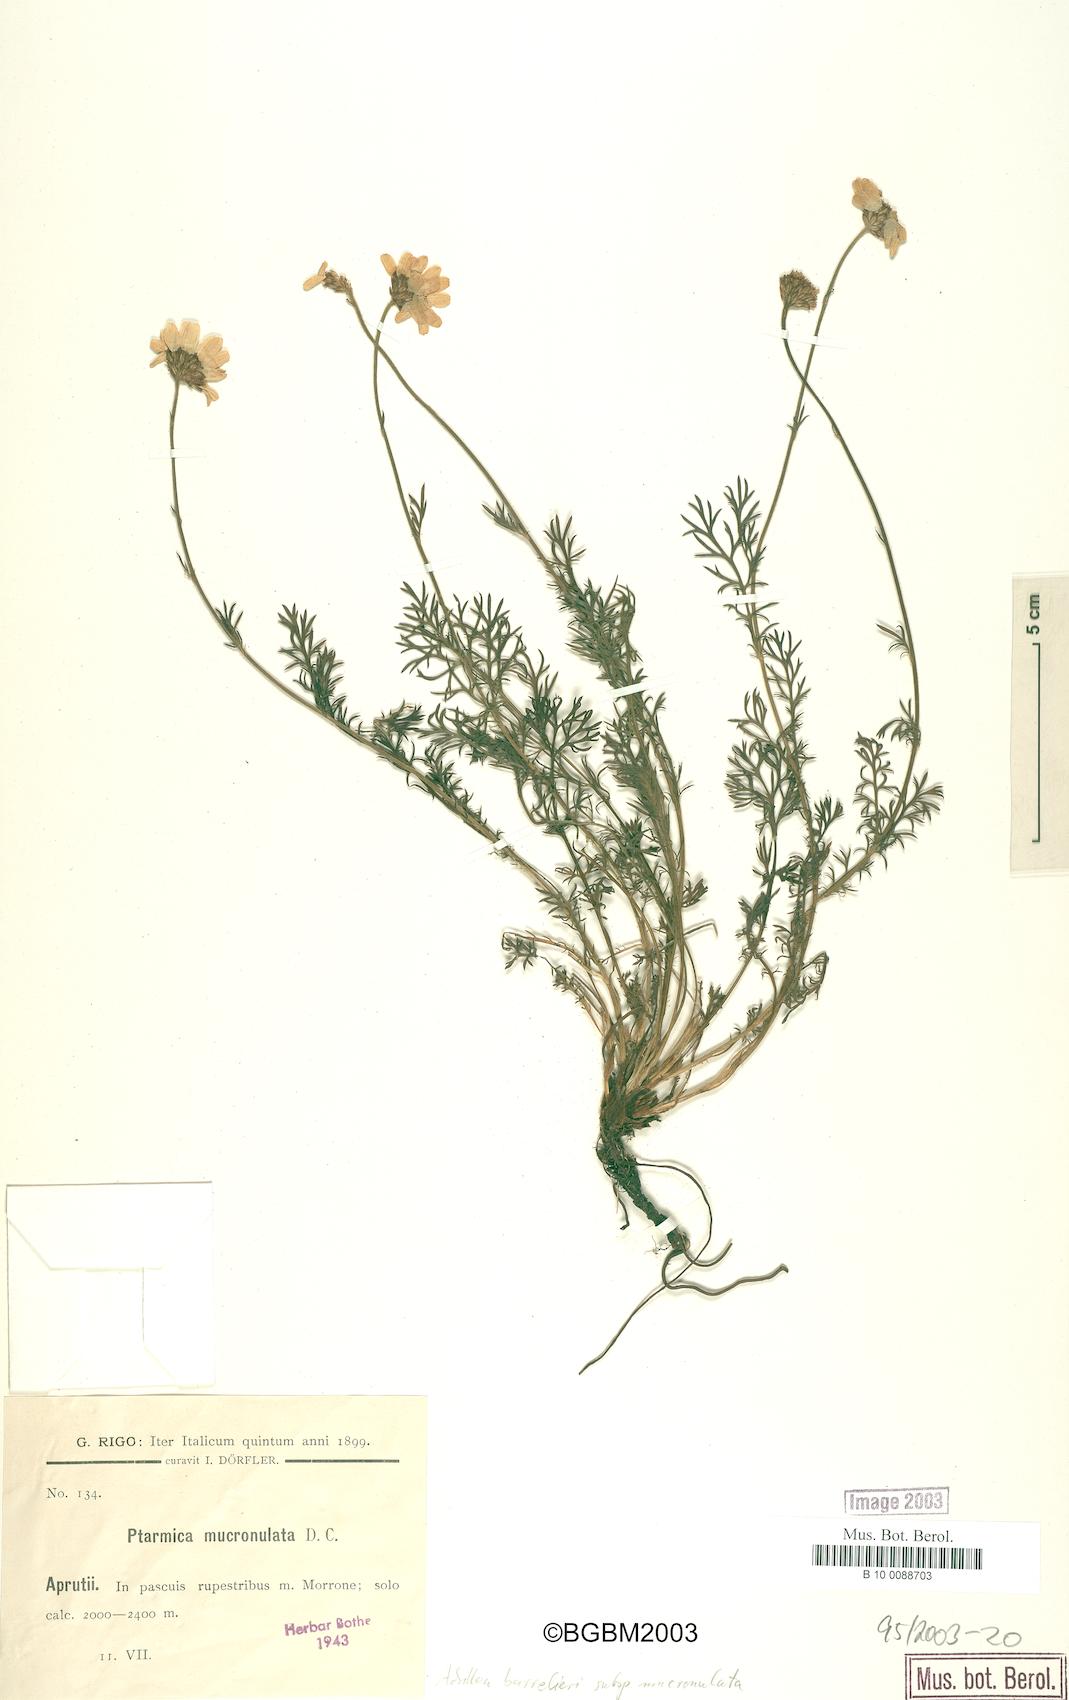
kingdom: Plantae
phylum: Tracheophyta
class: Magnoliopsida
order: Asterales
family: Asteraceae
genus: Achillea
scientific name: Achillea barrelieri
